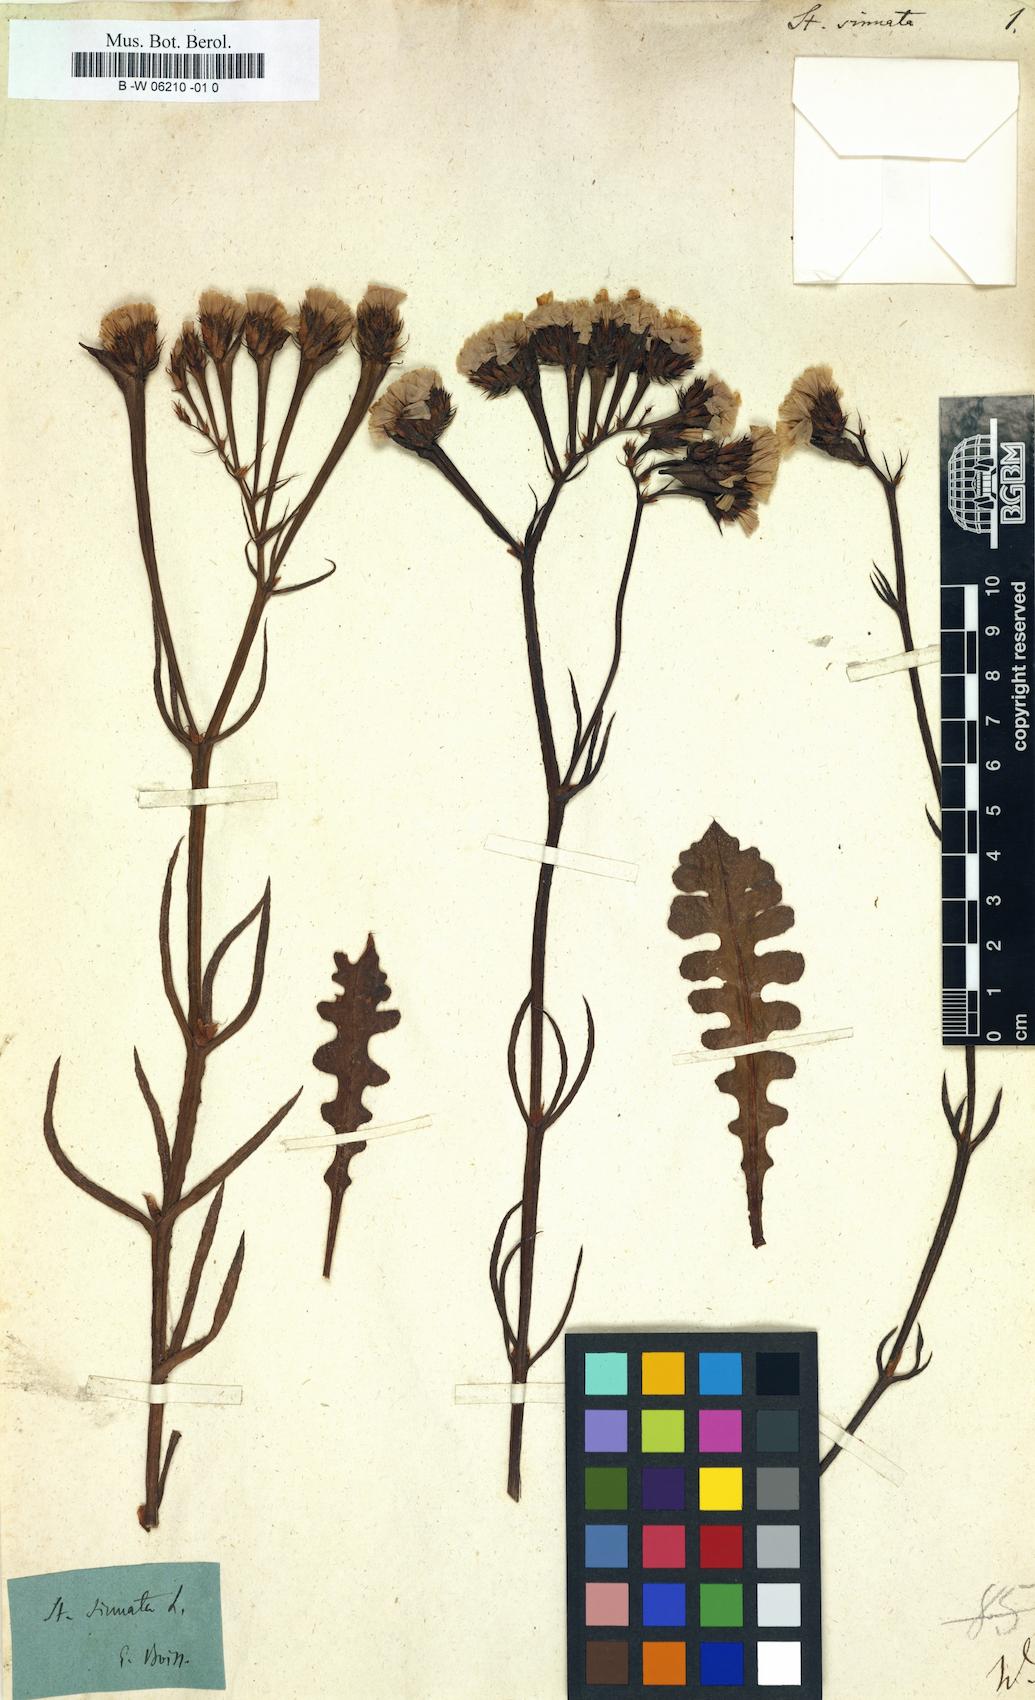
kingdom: Plantae
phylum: Tracheophyta
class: Magnoliopsida
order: Caryophyllales
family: Plumbaginaceae
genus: Limonium
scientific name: Limonium sinuatum
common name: Statice
